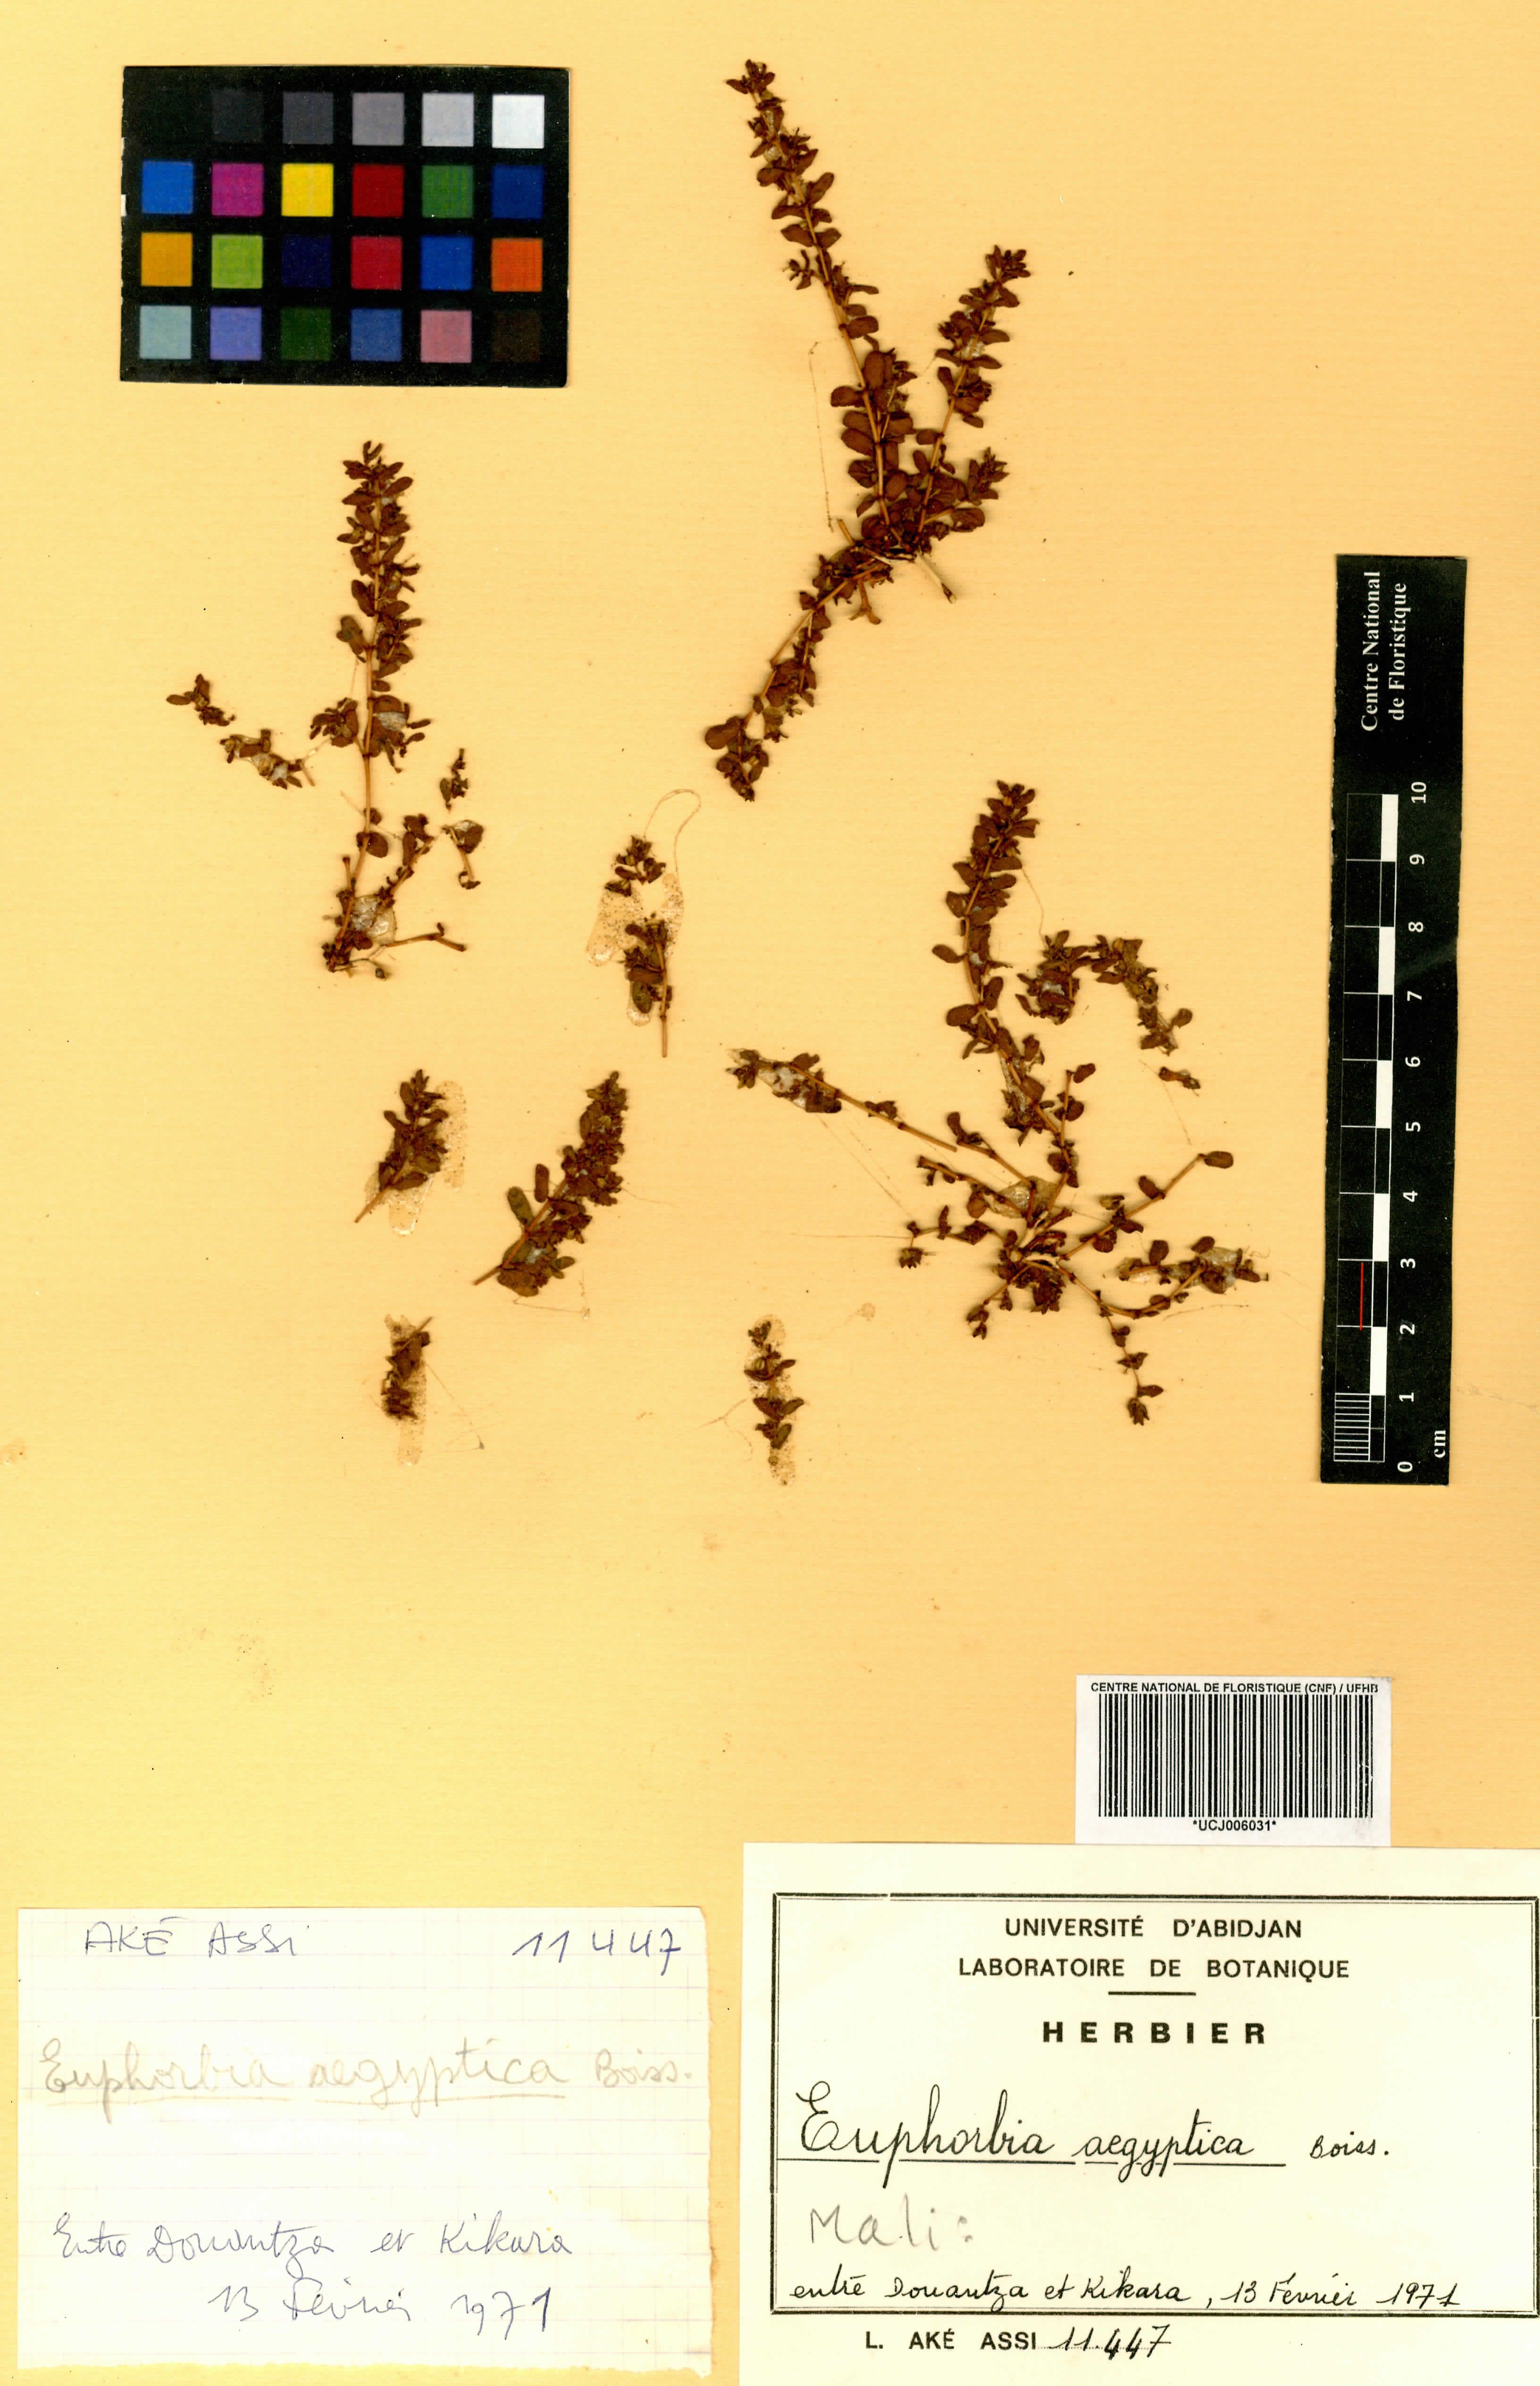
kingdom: Plantae
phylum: Tracheophyta
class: Magnoliopsida
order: Malpighiales
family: Euphorbiaceae
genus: Euphorbia
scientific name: Euphorbia forskaolii
